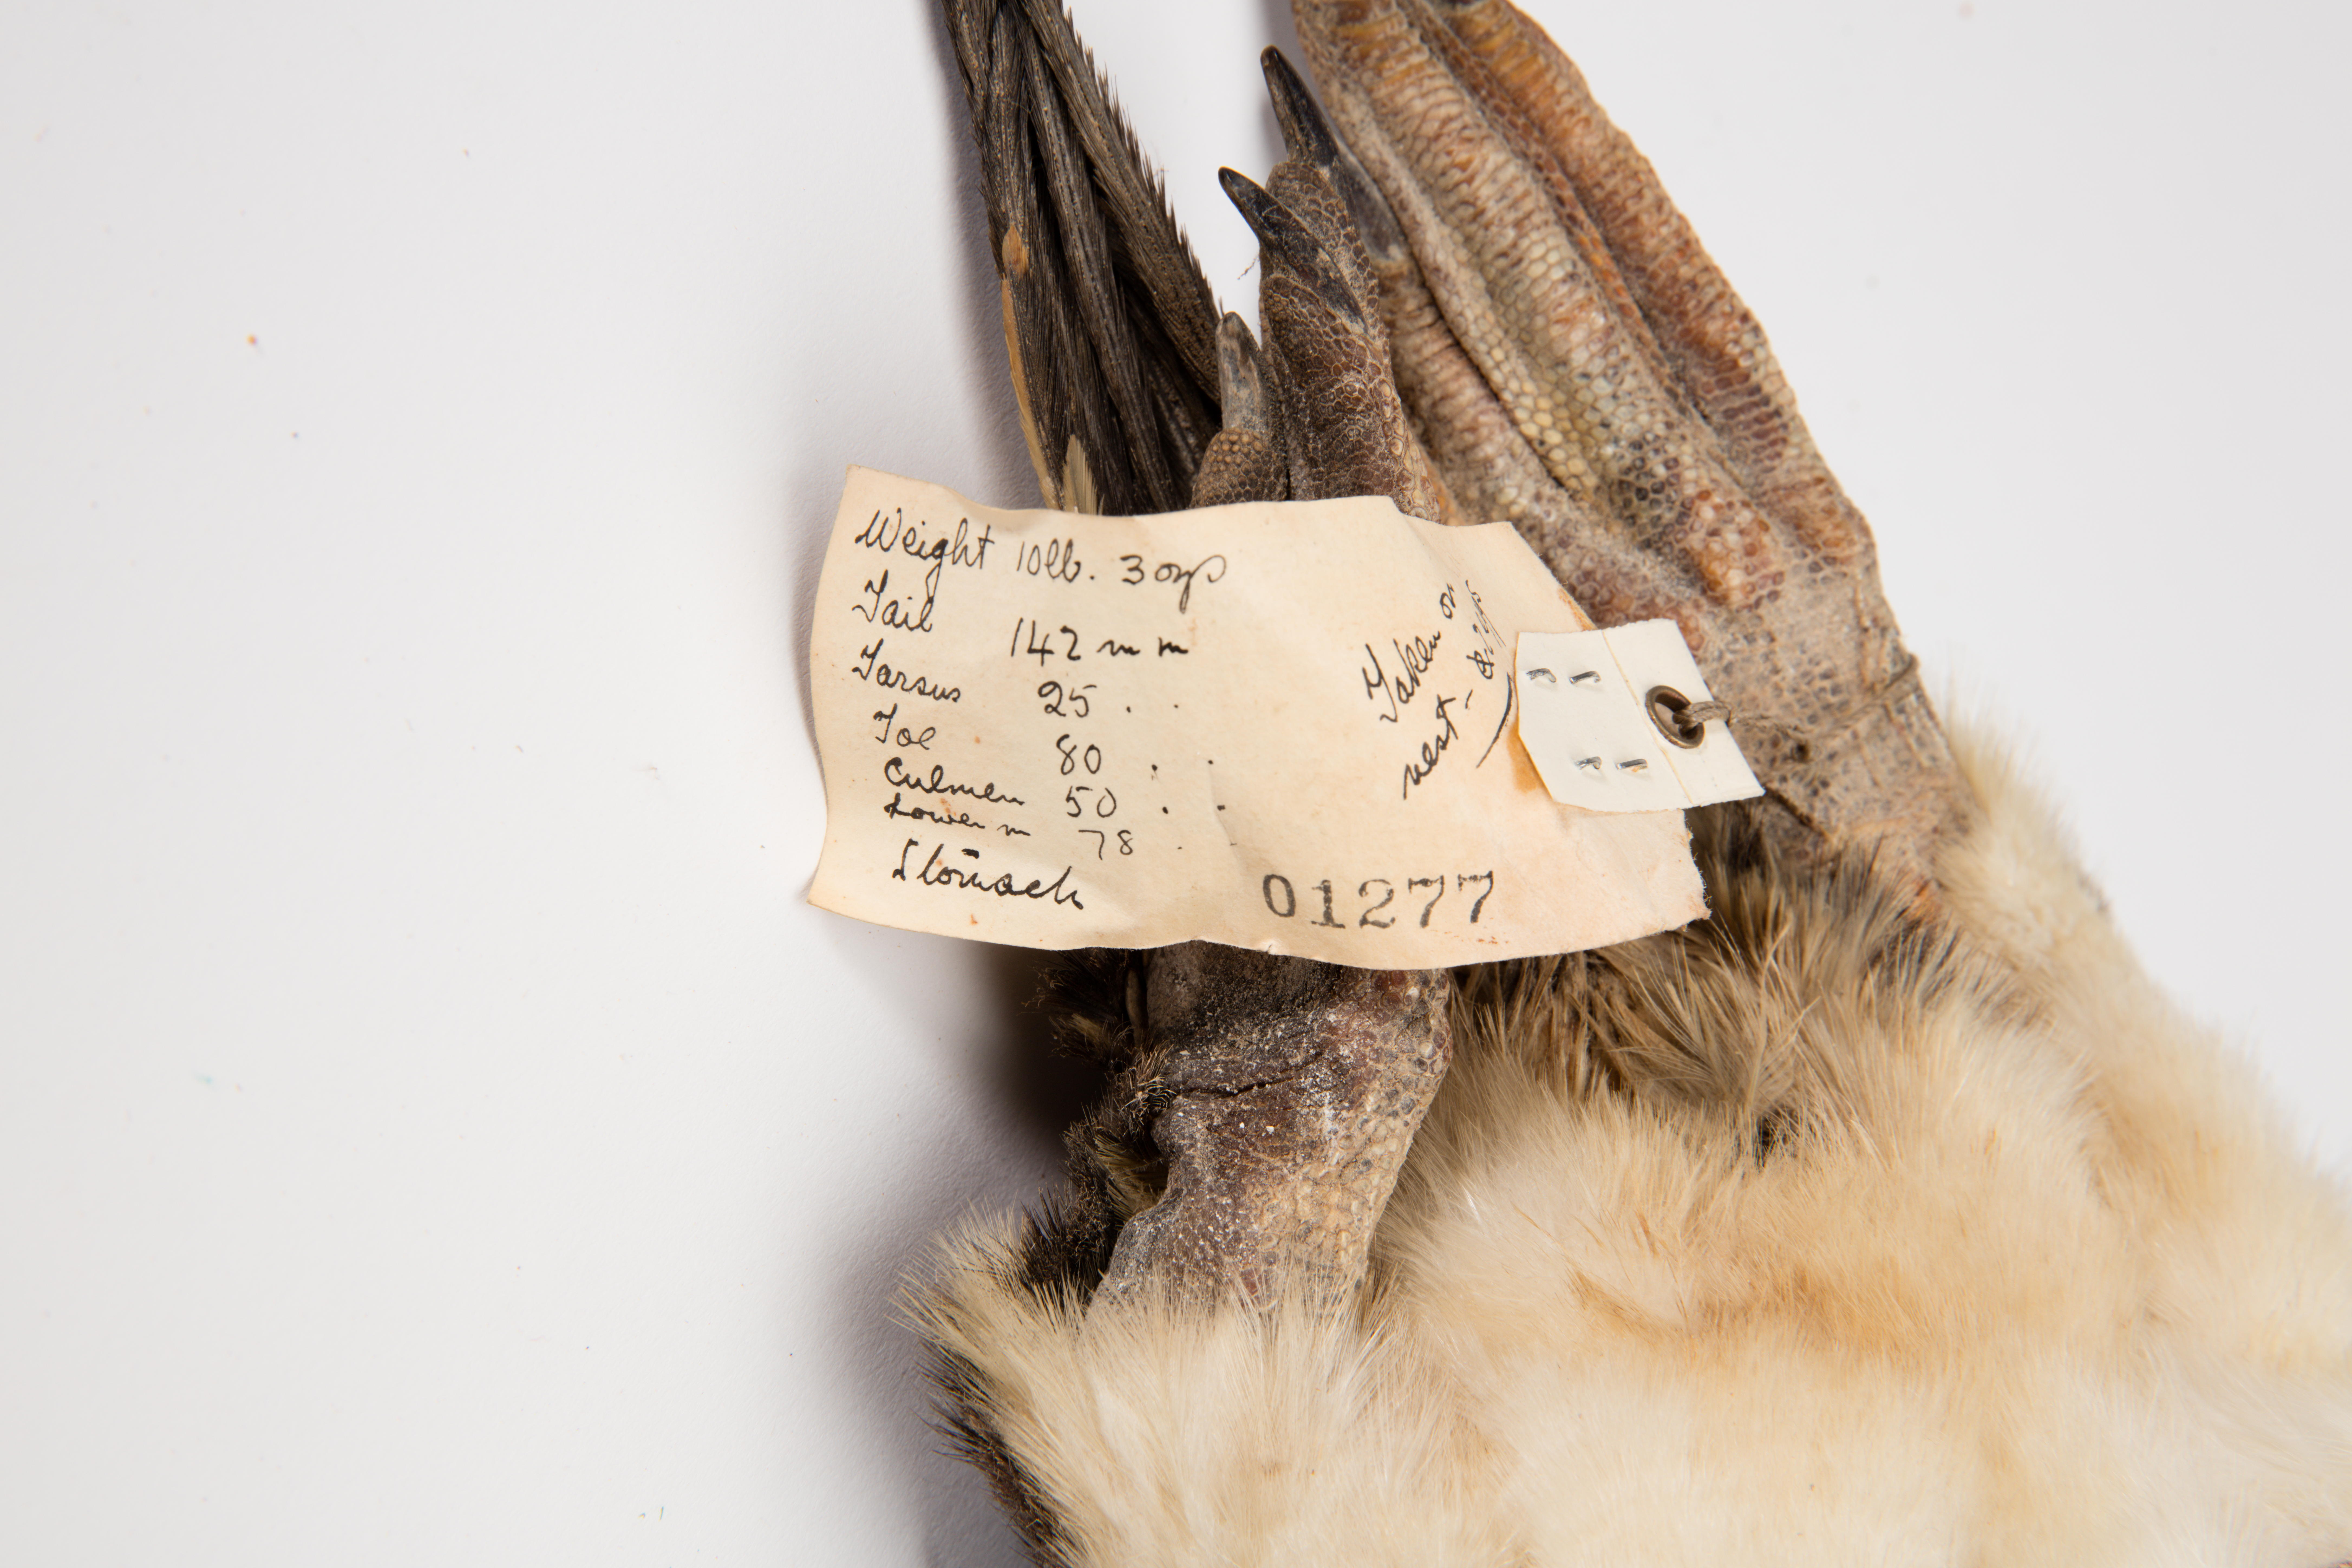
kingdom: Animalia
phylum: Chordata
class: Aves
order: Sphenisciformes
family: Spheniscidae
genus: Pygoscelis
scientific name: Pygoscelis papua
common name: Gentoo penguin
